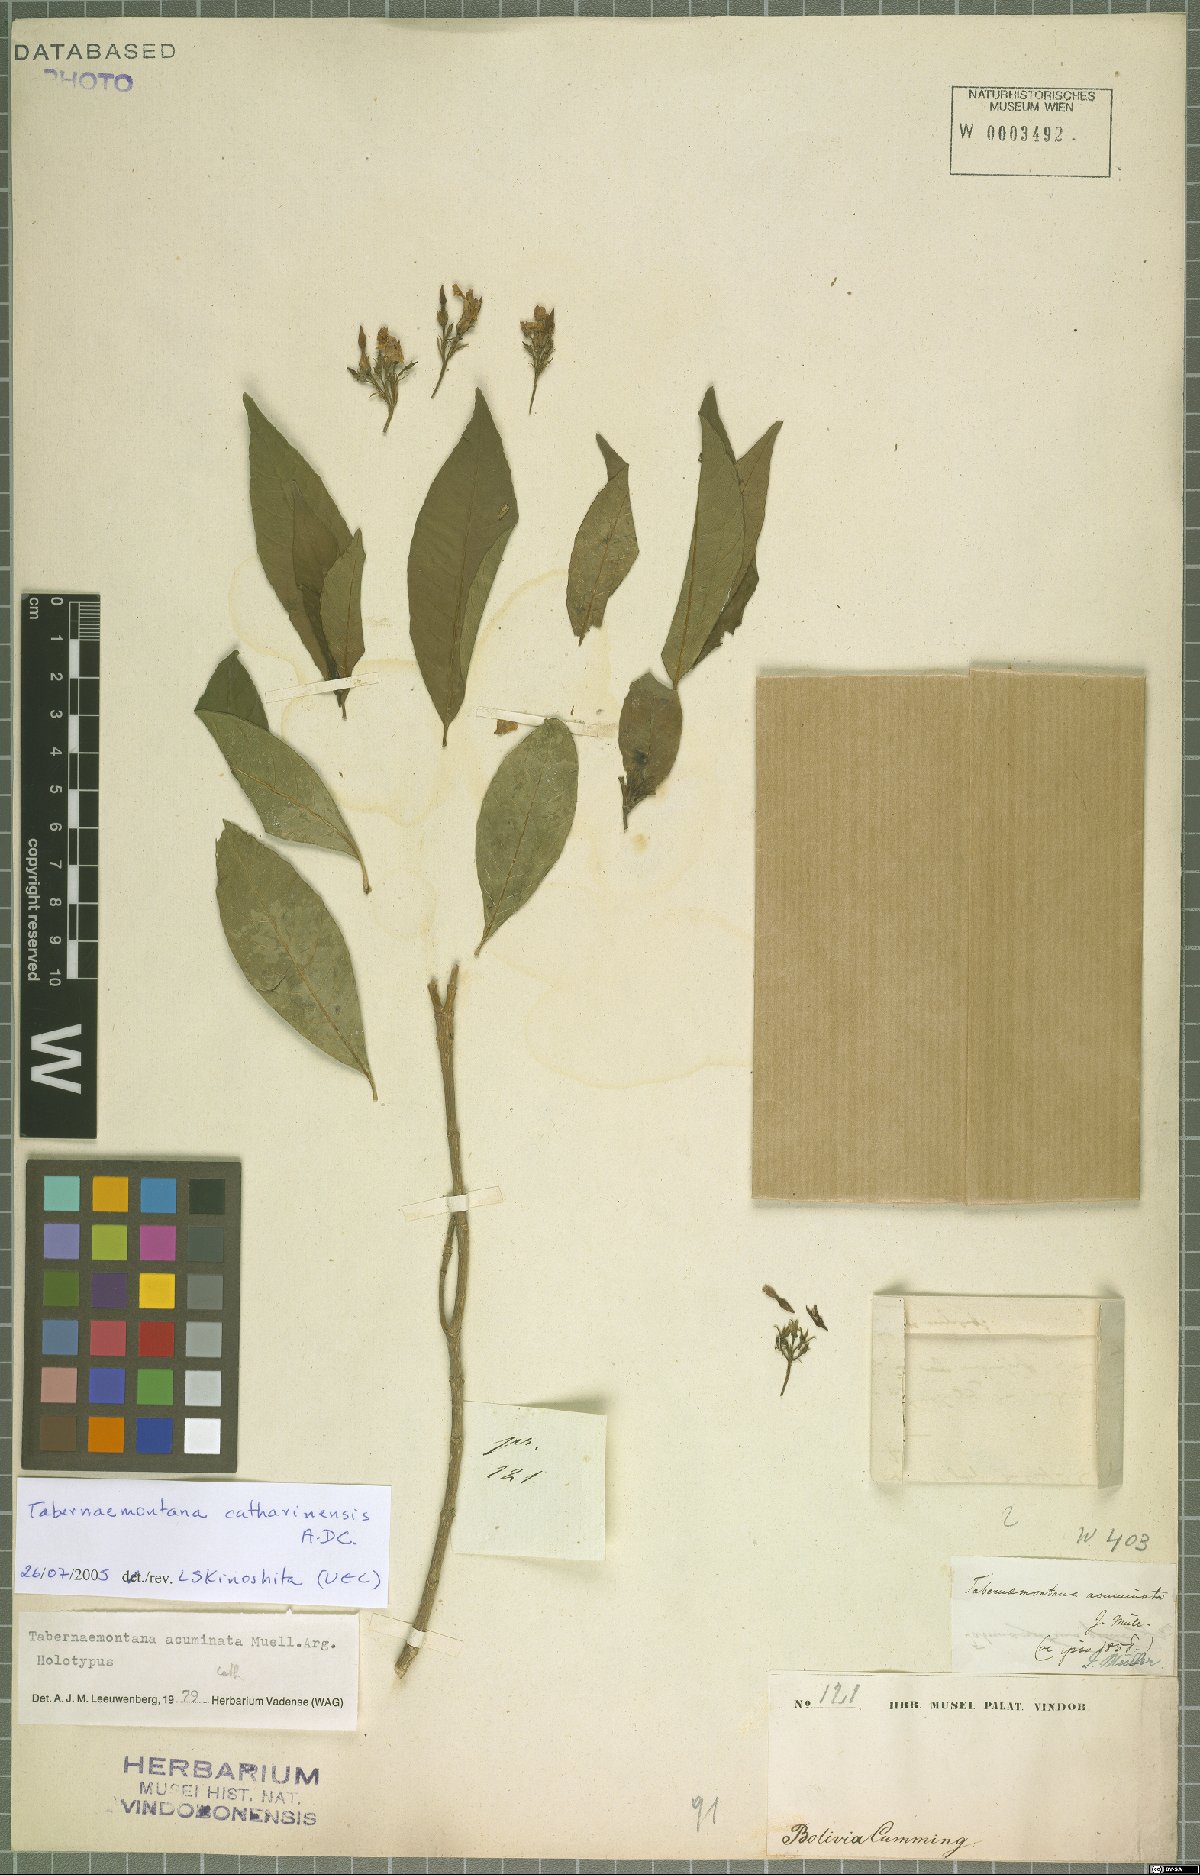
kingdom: Plantae
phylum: Tracheophyta
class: Magnoliopsida
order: Gentianales
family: Apocynaceae
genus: Tabernaemontana
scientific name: Tabernaemontana catharinensis
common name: Pinwheel-flower
